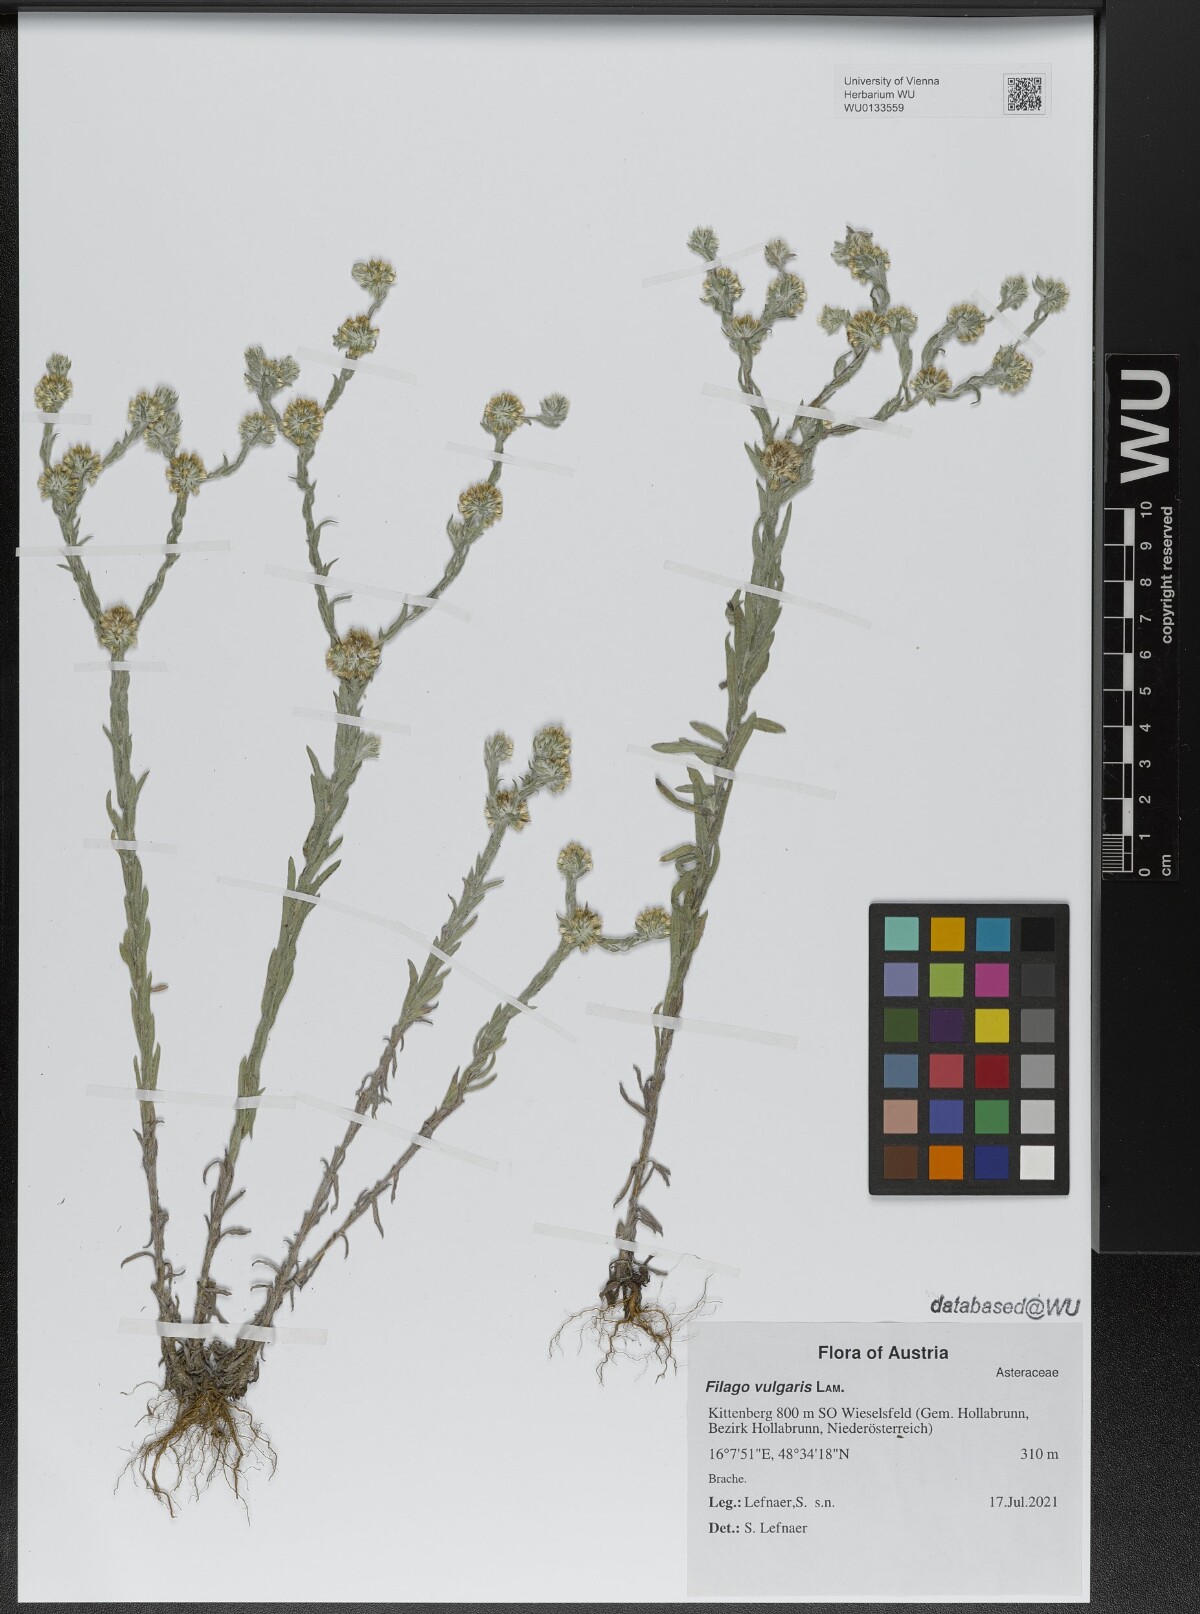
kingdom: Plantae
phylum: Tracheophyta
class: Magnoliopsida
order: Asterales
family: Asteraceae
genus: Filago
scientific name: Filago germanica
